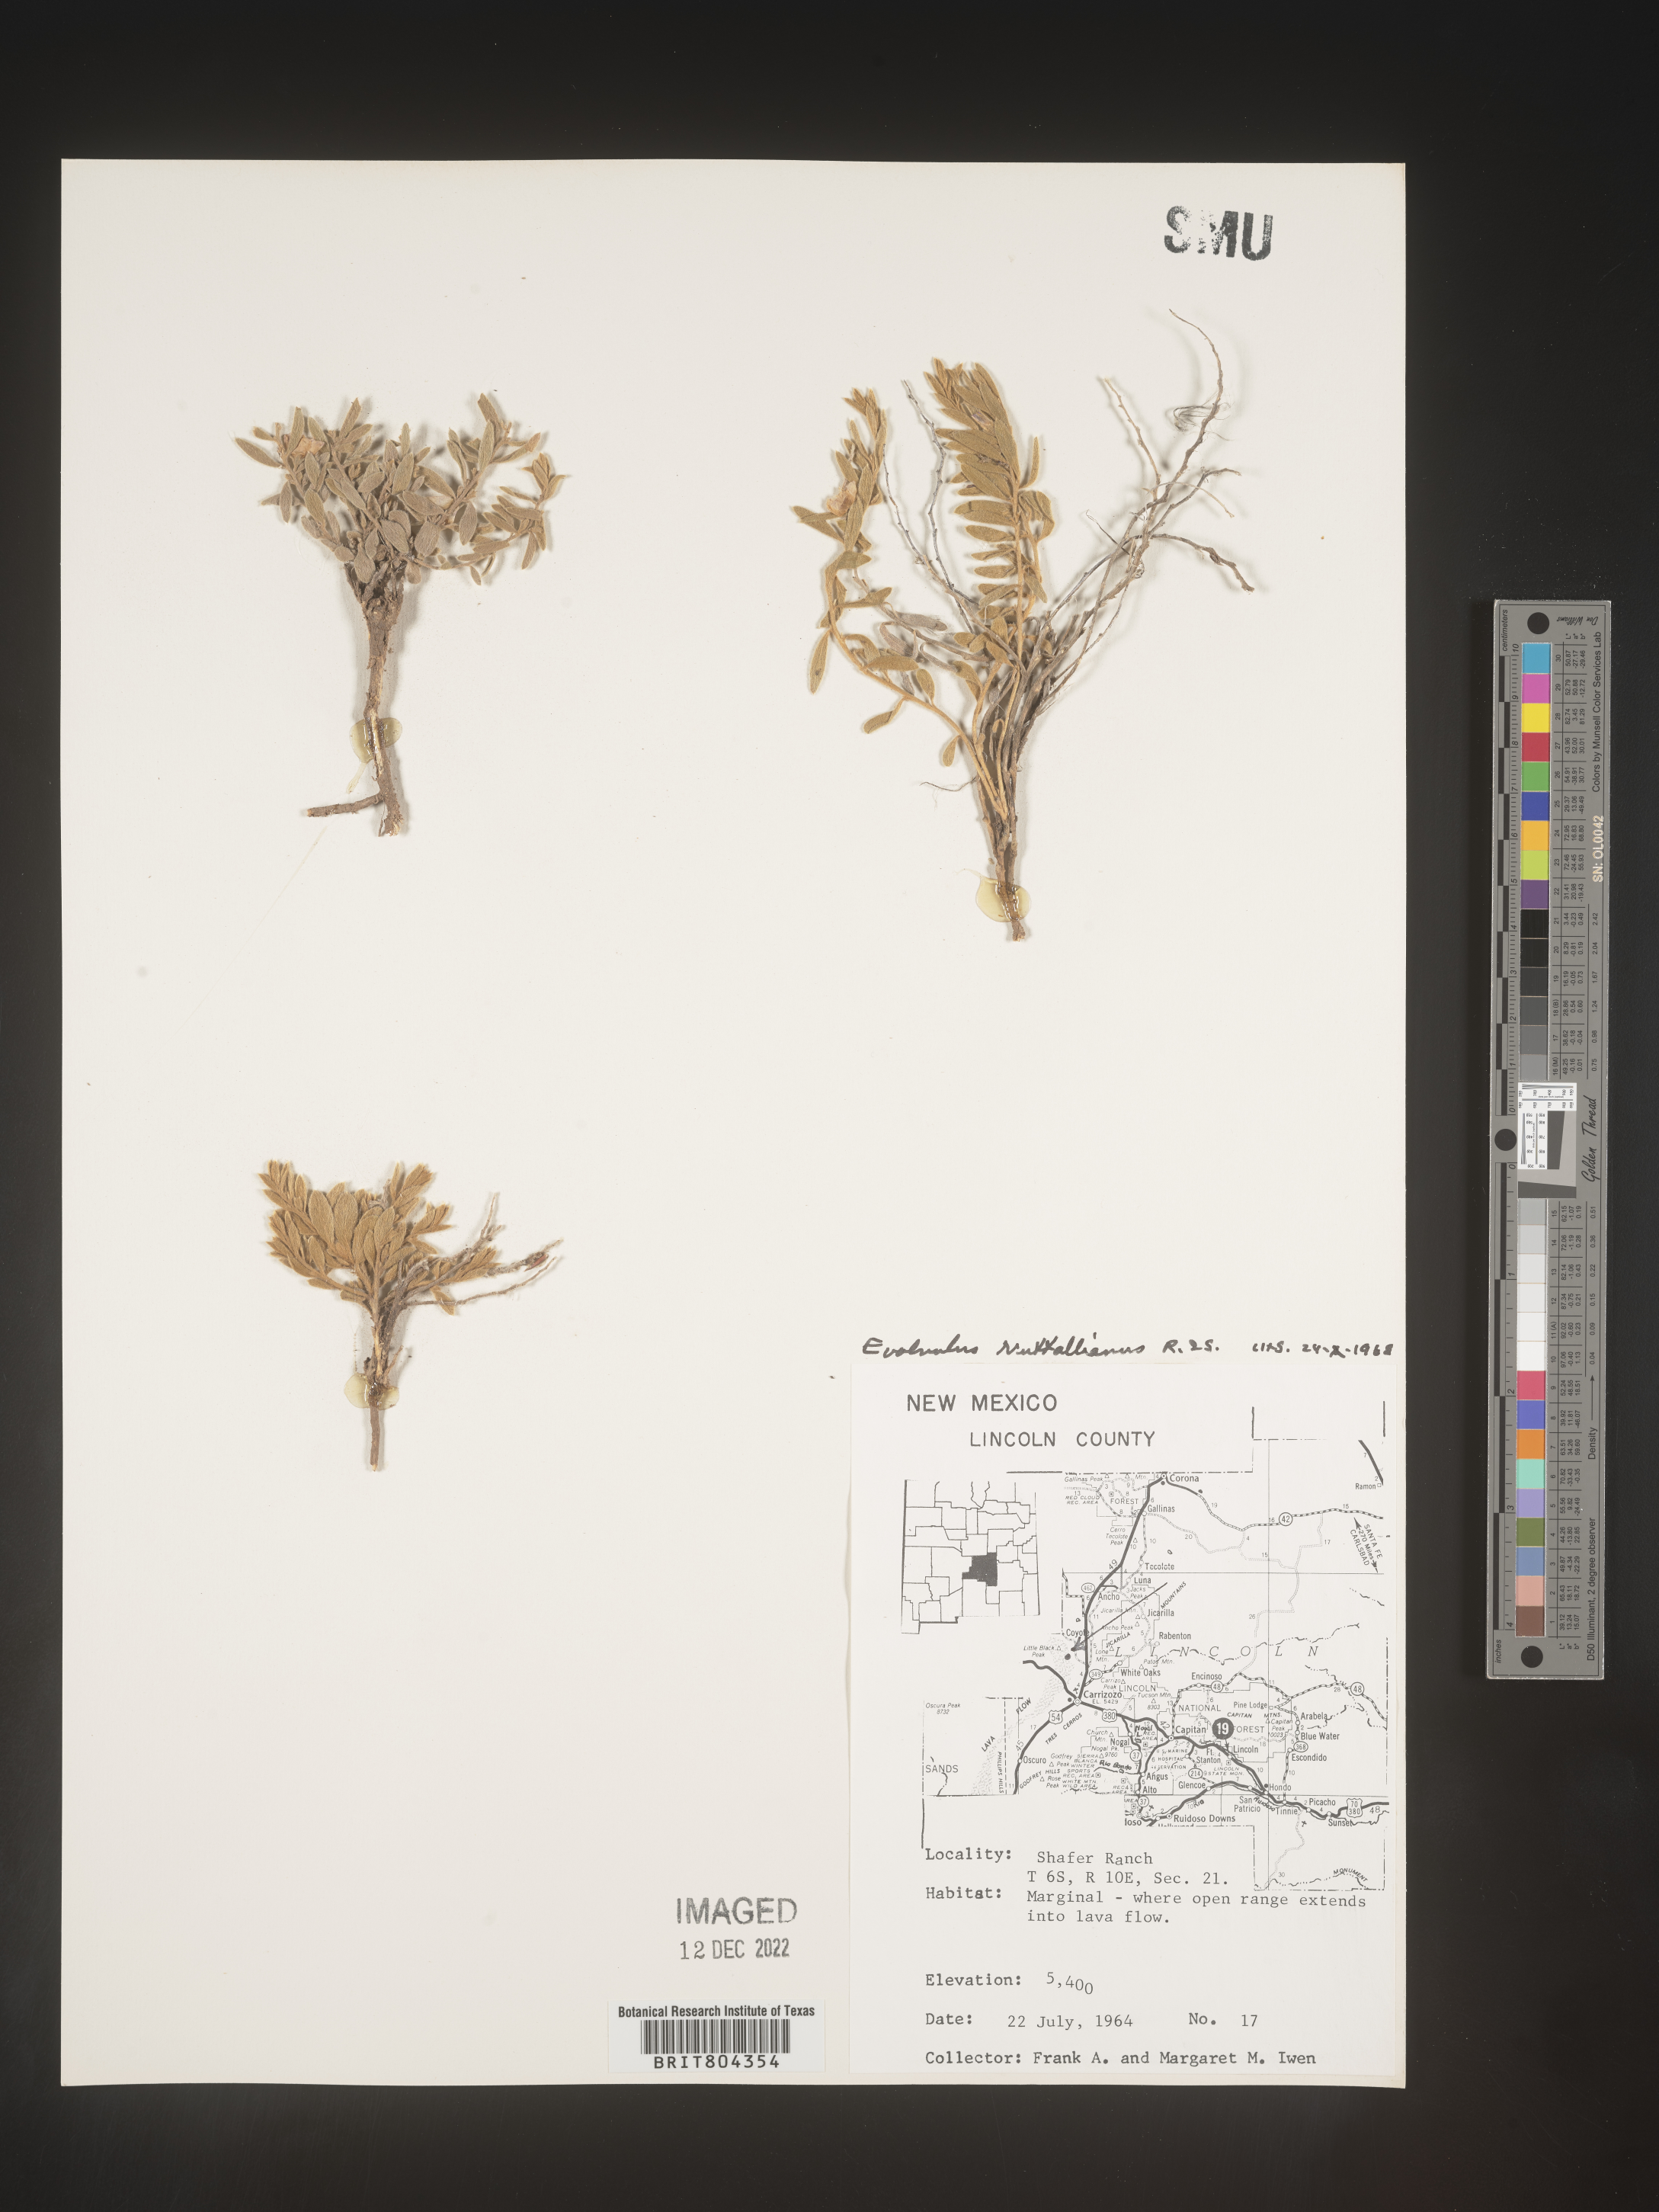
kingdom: Plantae
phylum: Tracheophyta
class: Magnoliopsida
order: Solanales
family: Convolvulaceae
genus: Evolvulus
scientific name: Evolvulus nuttallianus
